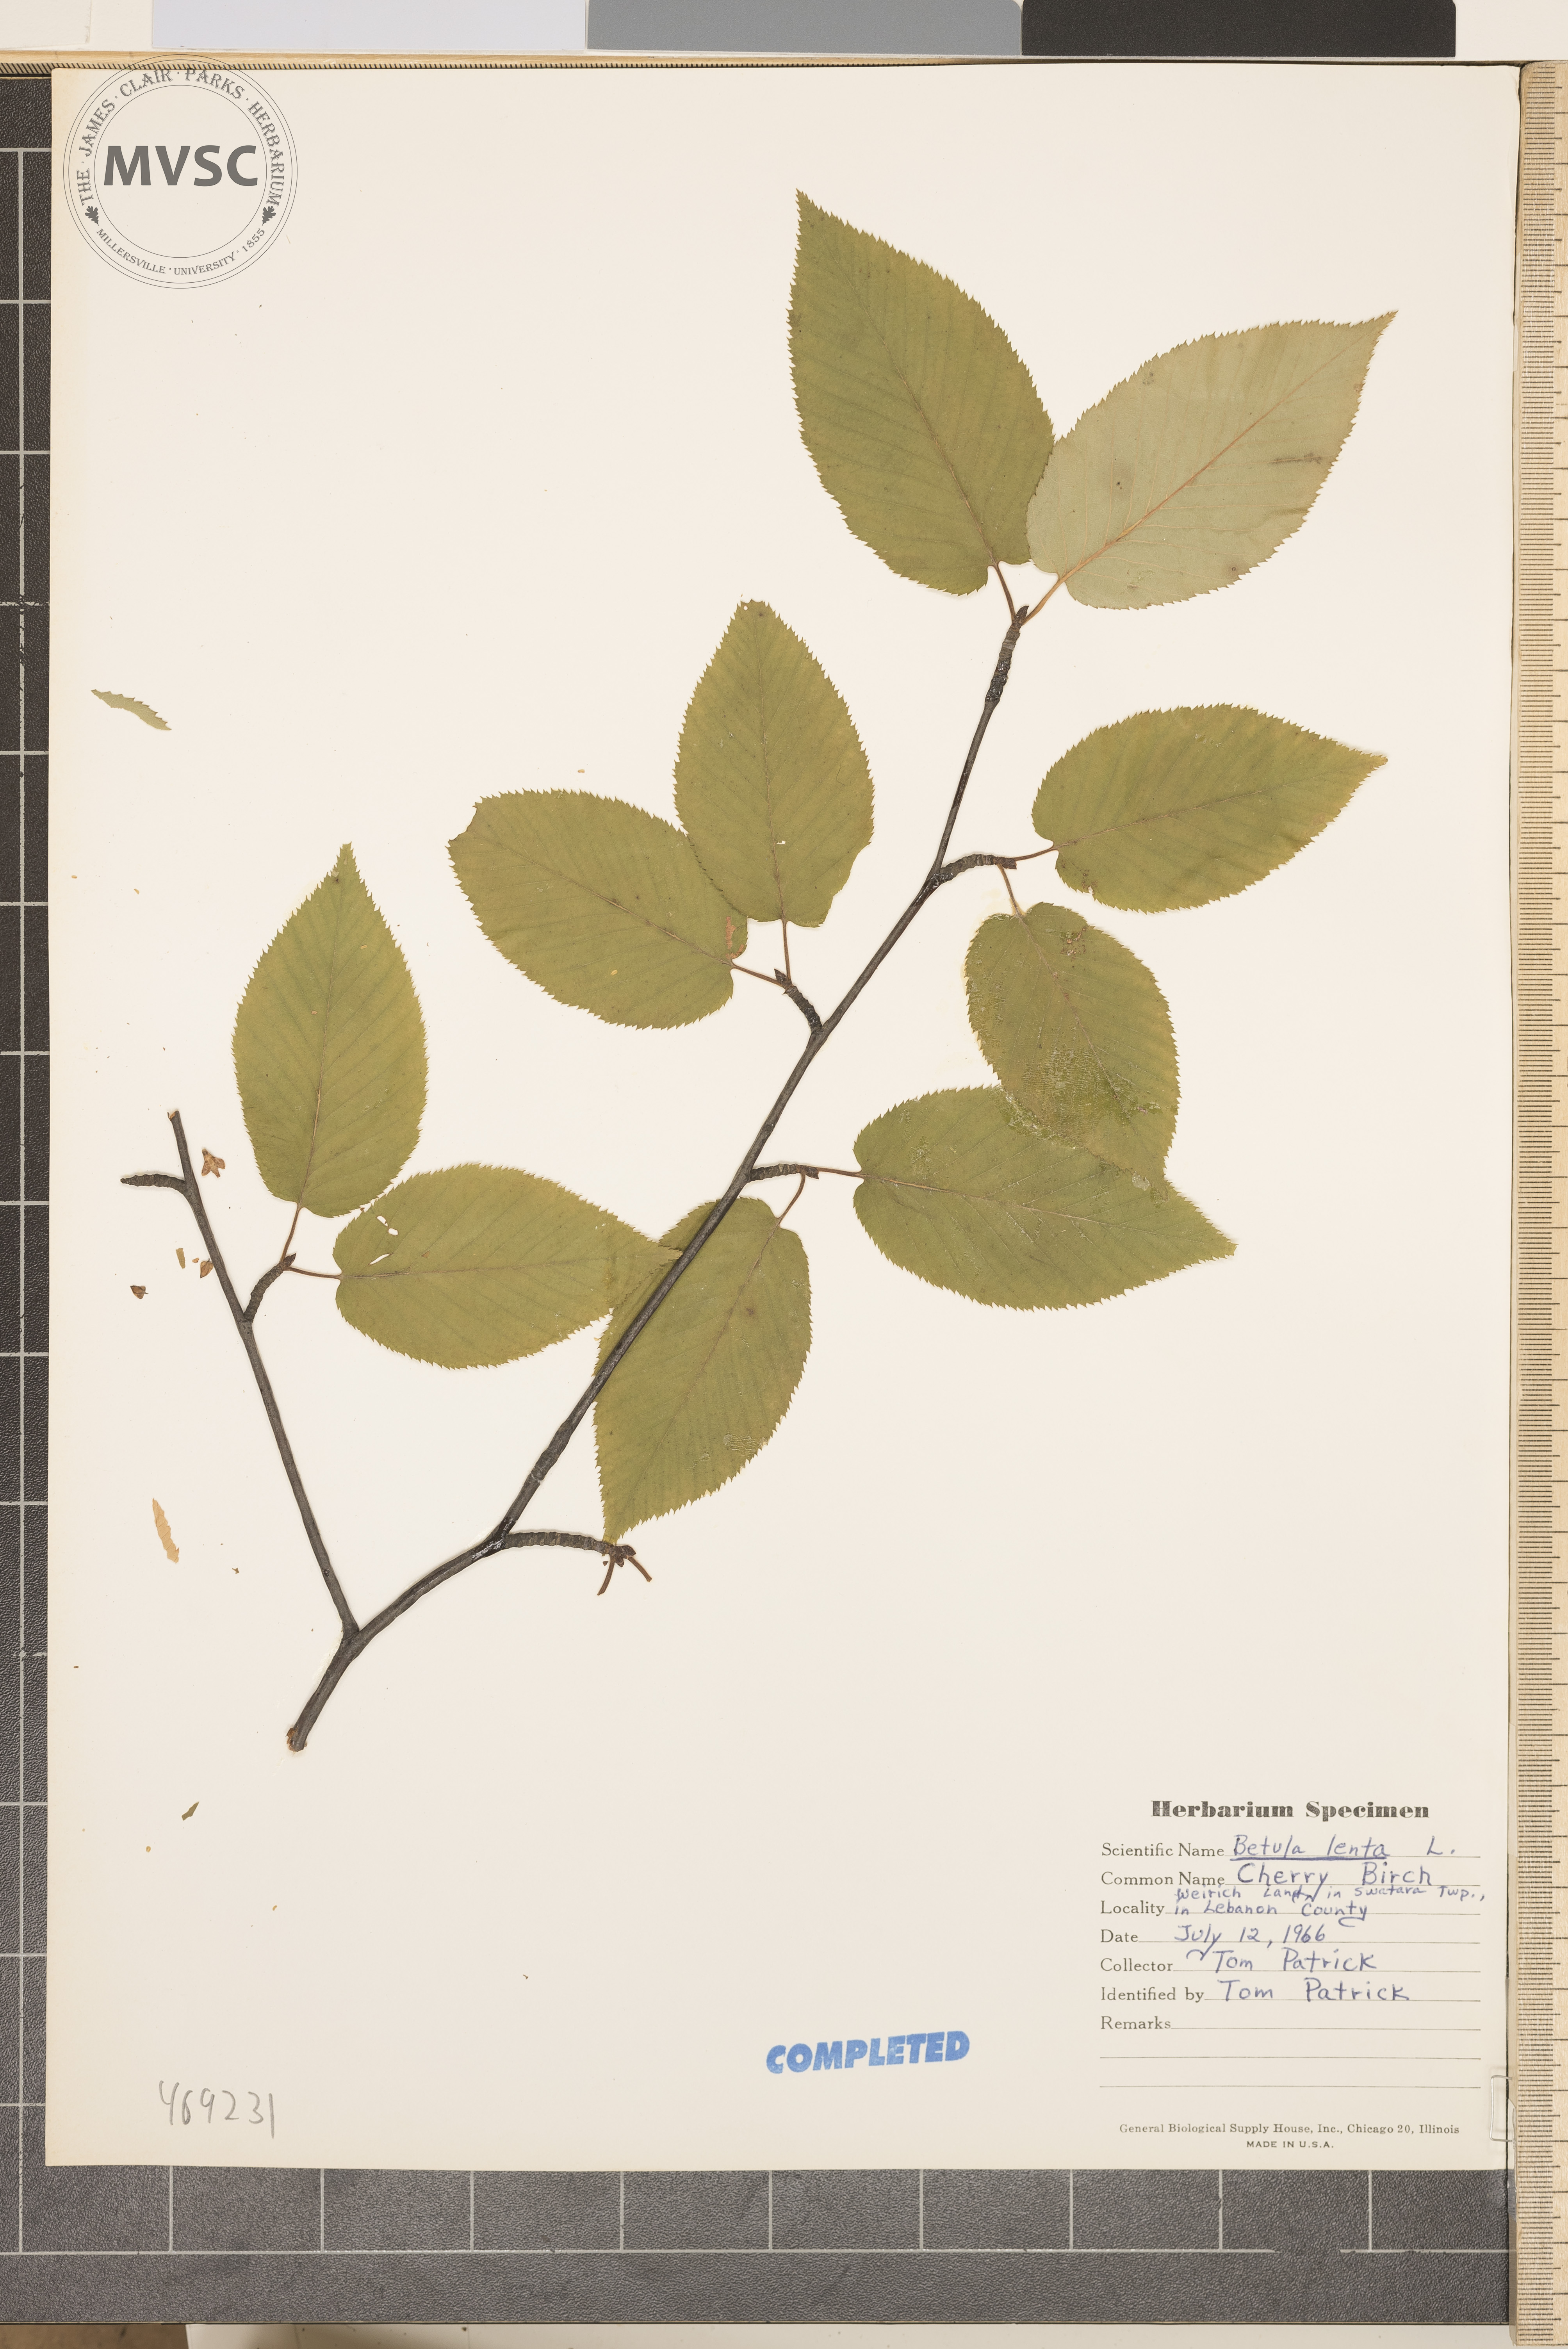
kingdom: Plantae
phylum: Tracheophyta
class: Magnoliopsida
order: Fagales
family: Betulaceae
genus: Betula
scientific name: Betula lenta
